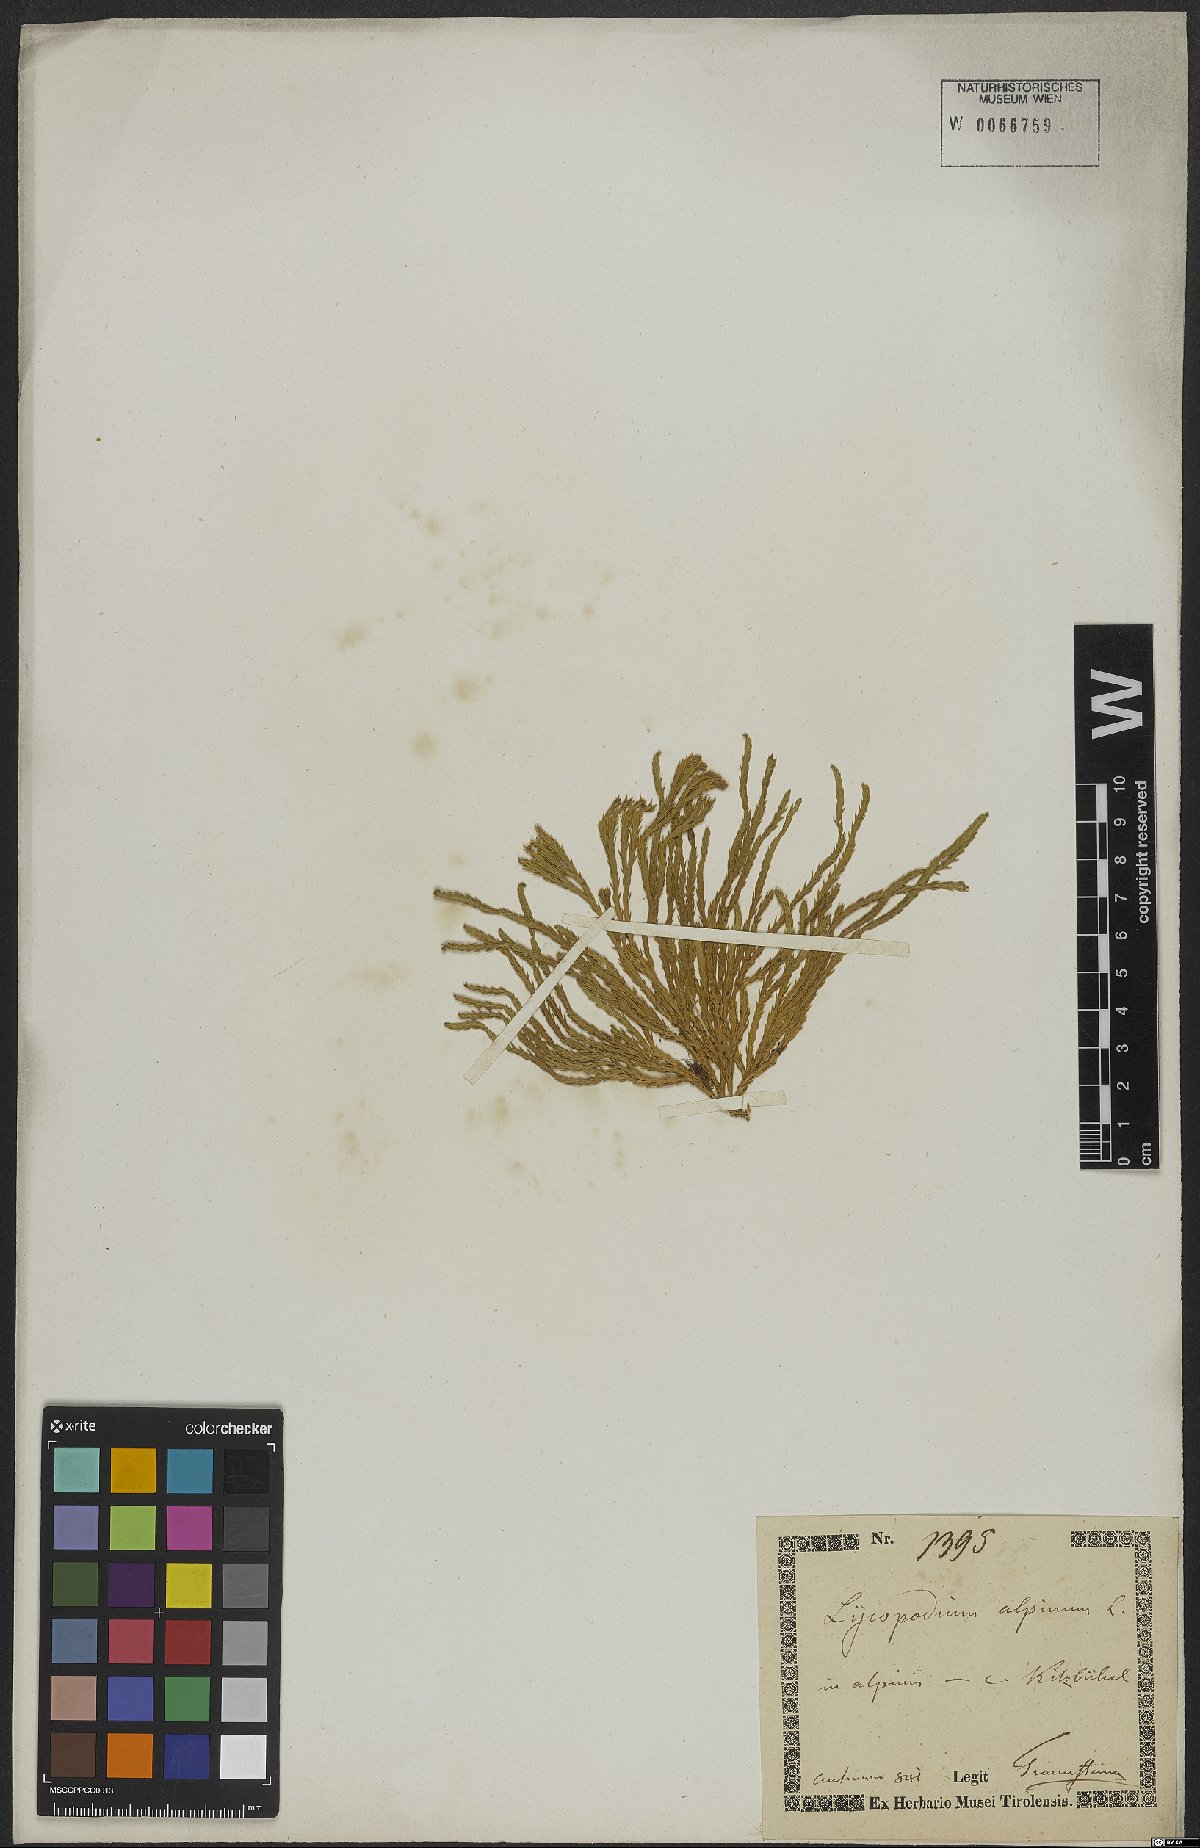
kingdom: Plantae
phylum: Tracheophyta
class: Lycopodiopsida
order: Lycopodiales
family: Lycopodiaceae
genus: Diphasiastrum
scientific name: Diphasiastrum alpinum
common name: Alpine clubmoss
